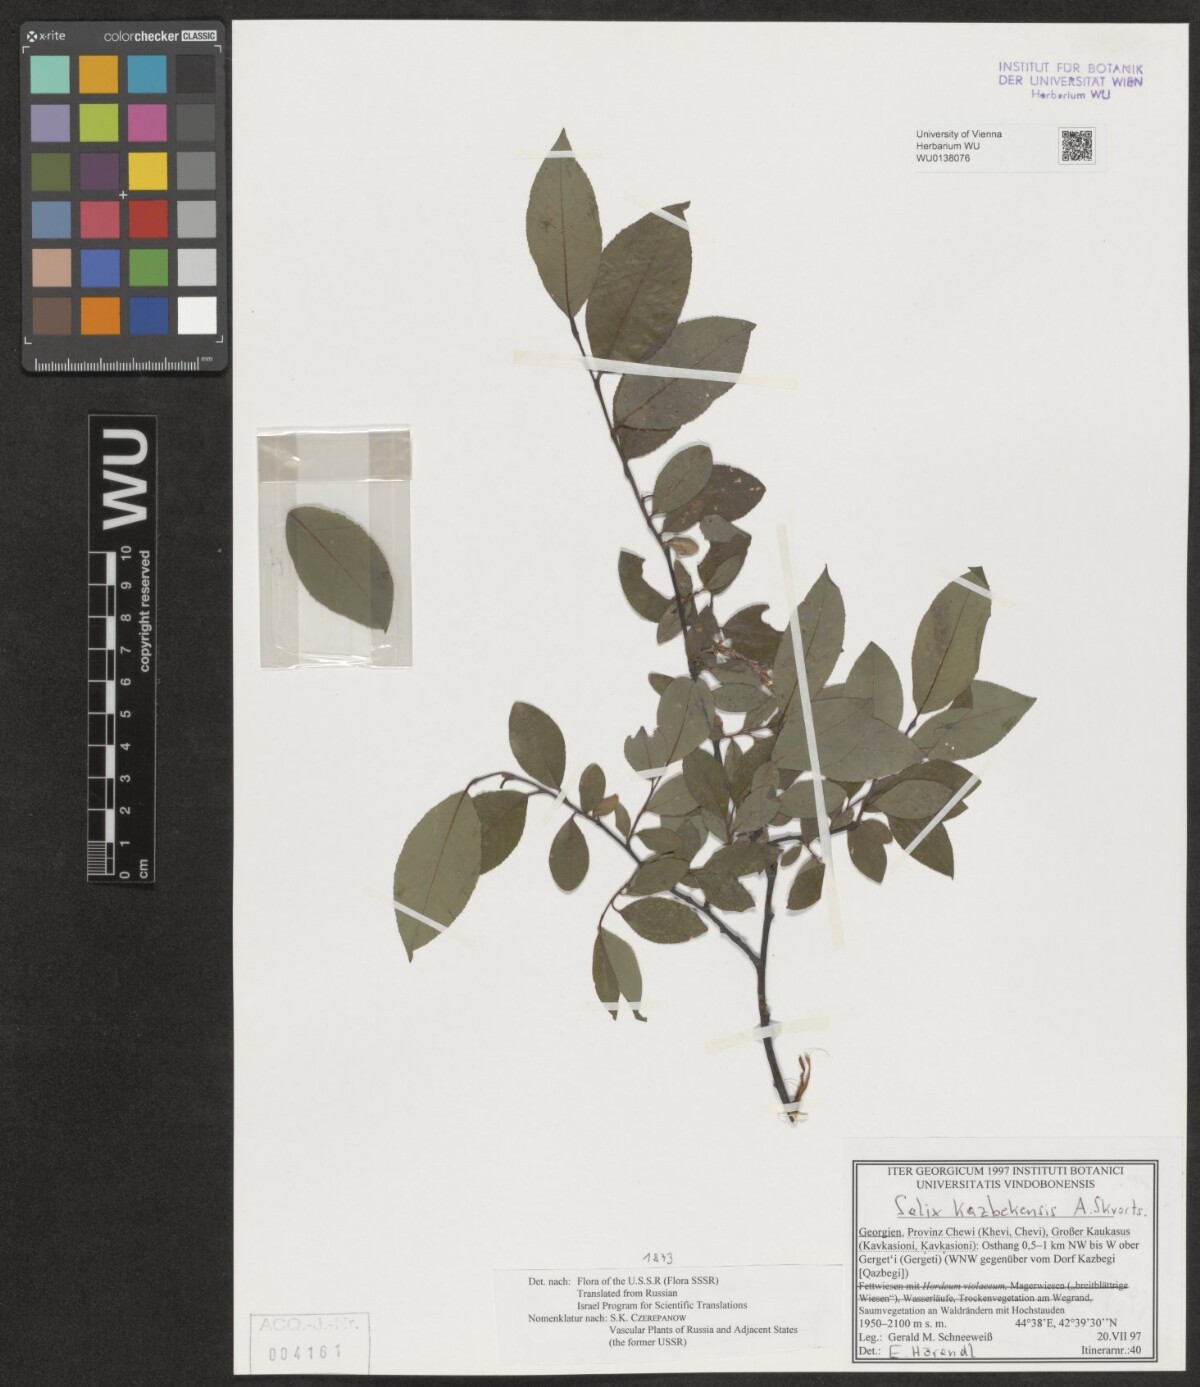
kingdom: Plantae
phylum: Tracheophyta
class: Magnoliopsida
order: Malpighiales
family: Salicaceae
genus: Salix
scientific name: Salix kazbekensis
